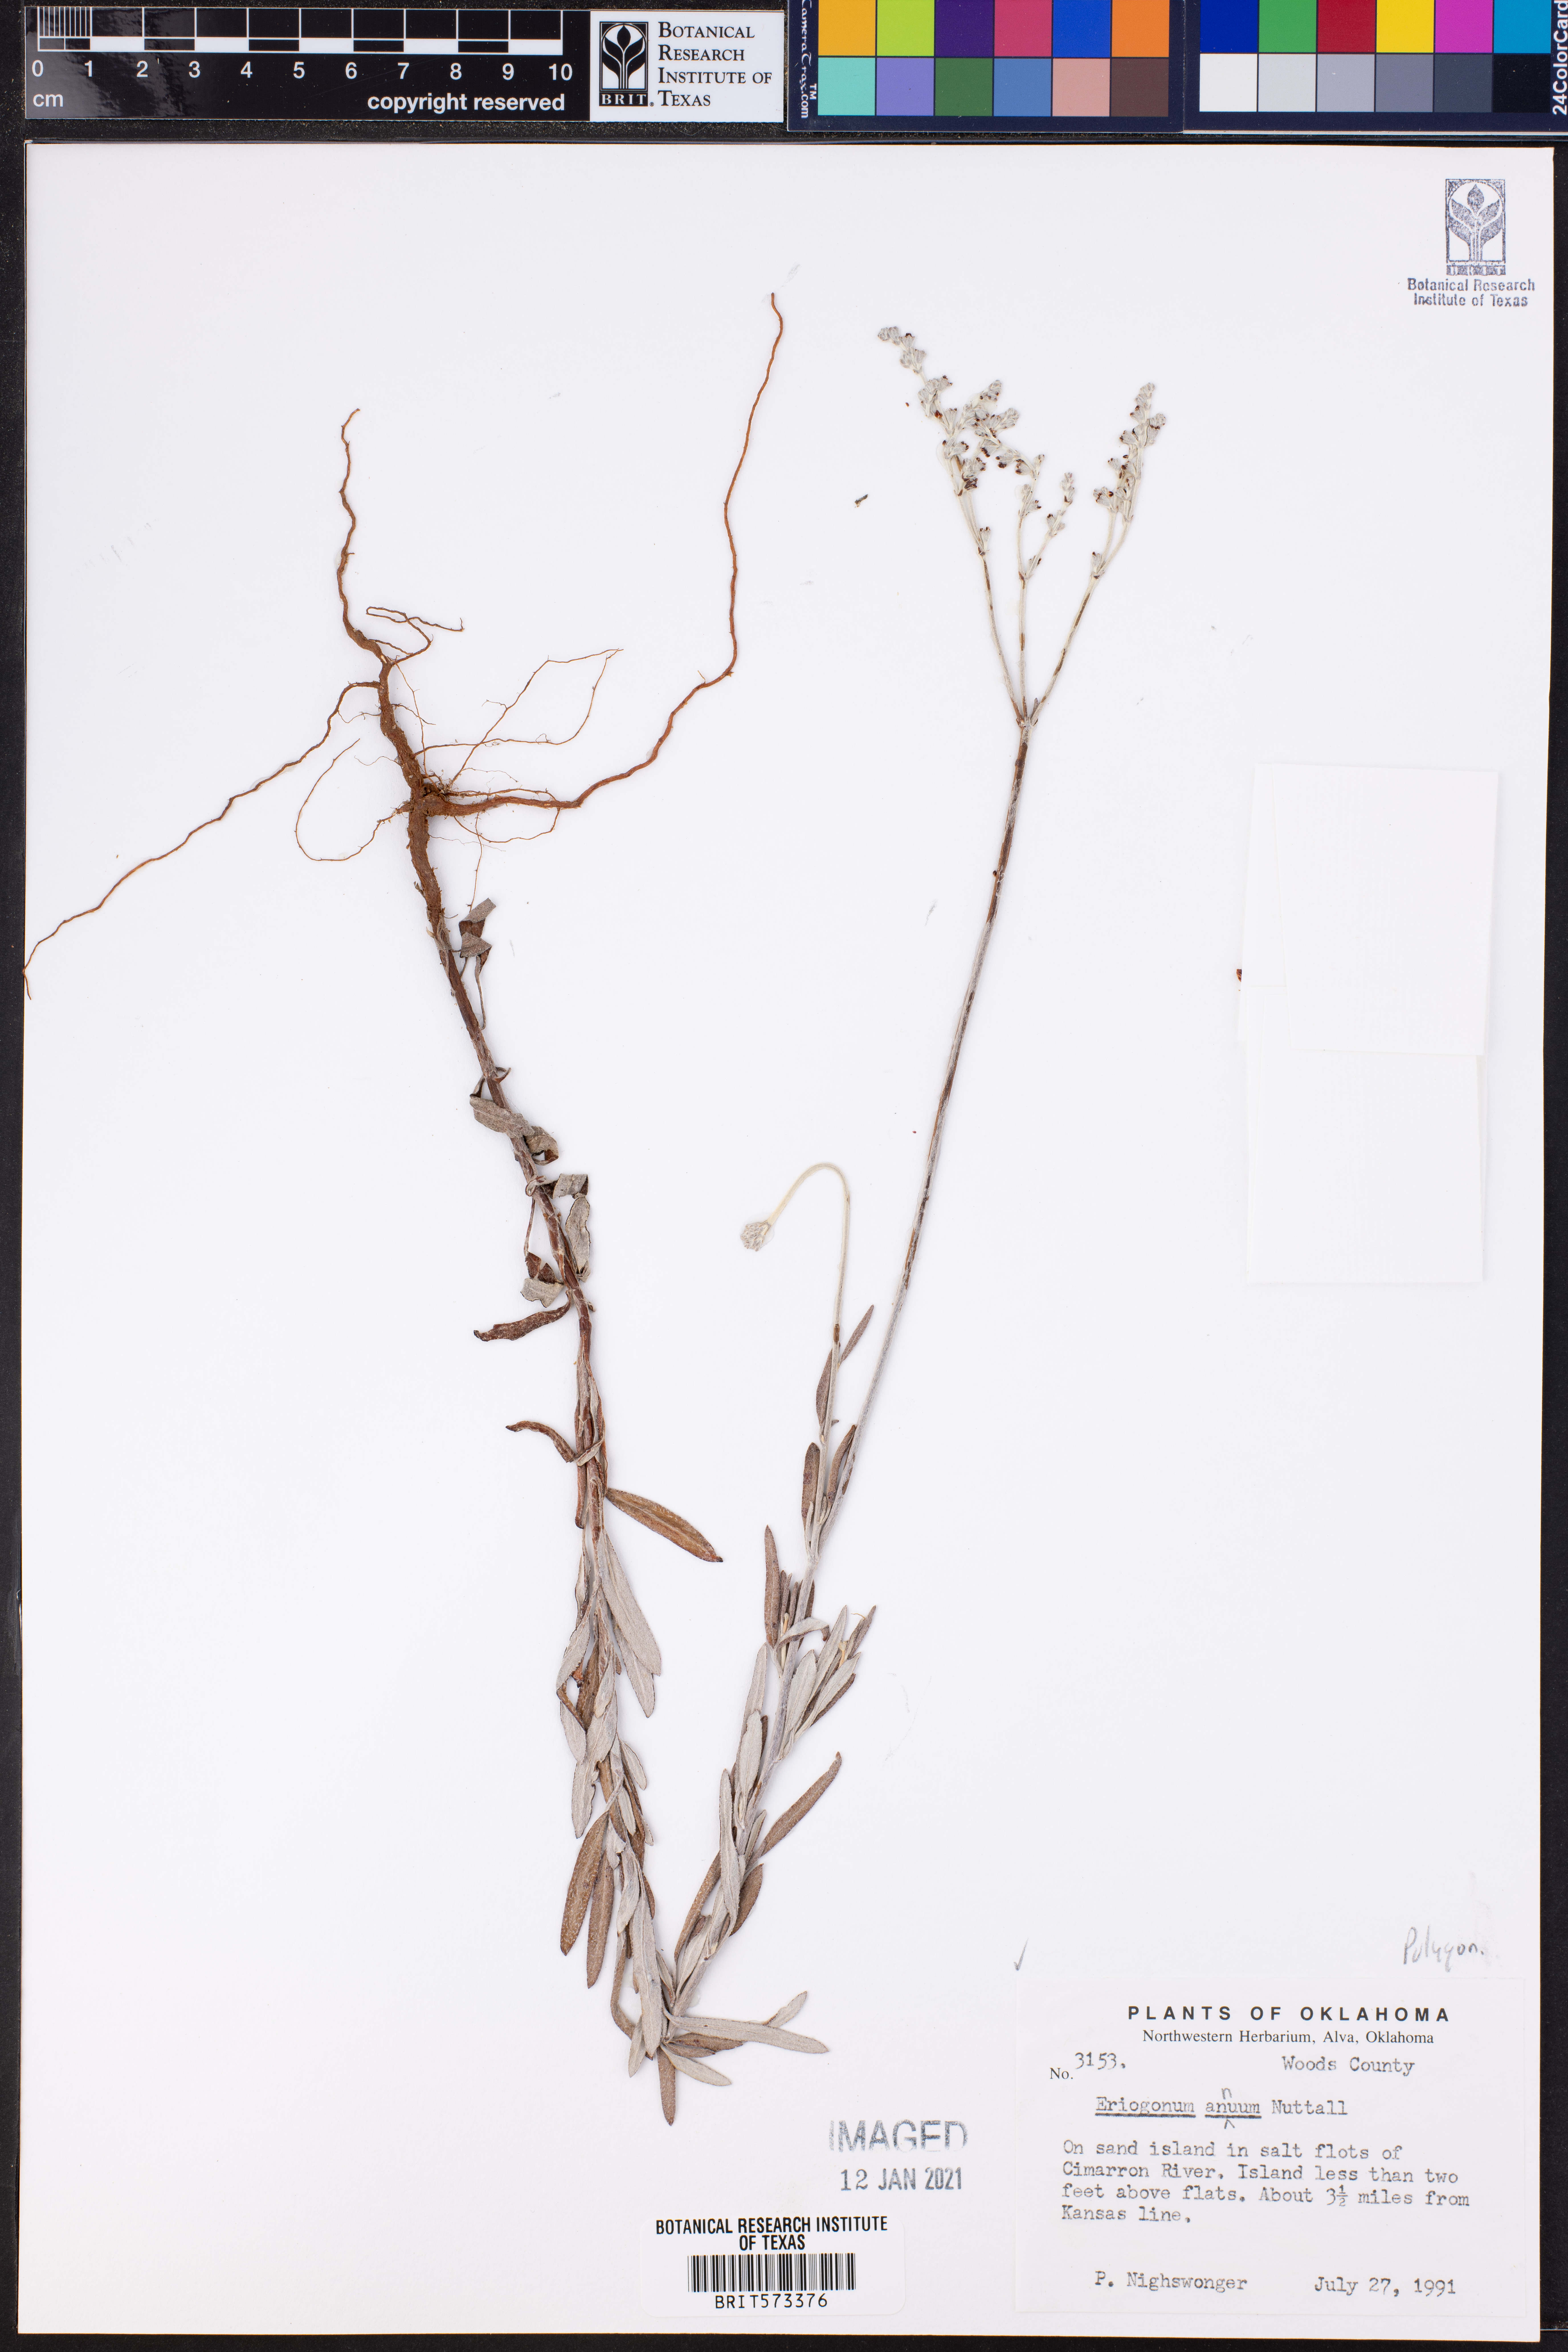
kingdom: Plantae
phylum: Tracheophyta
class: Magnoliopsida
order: Caryophyllales
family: Polygonaceae
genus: Eriogonum
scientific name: Eriogonum annuum
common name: Annual wild buckwheat
